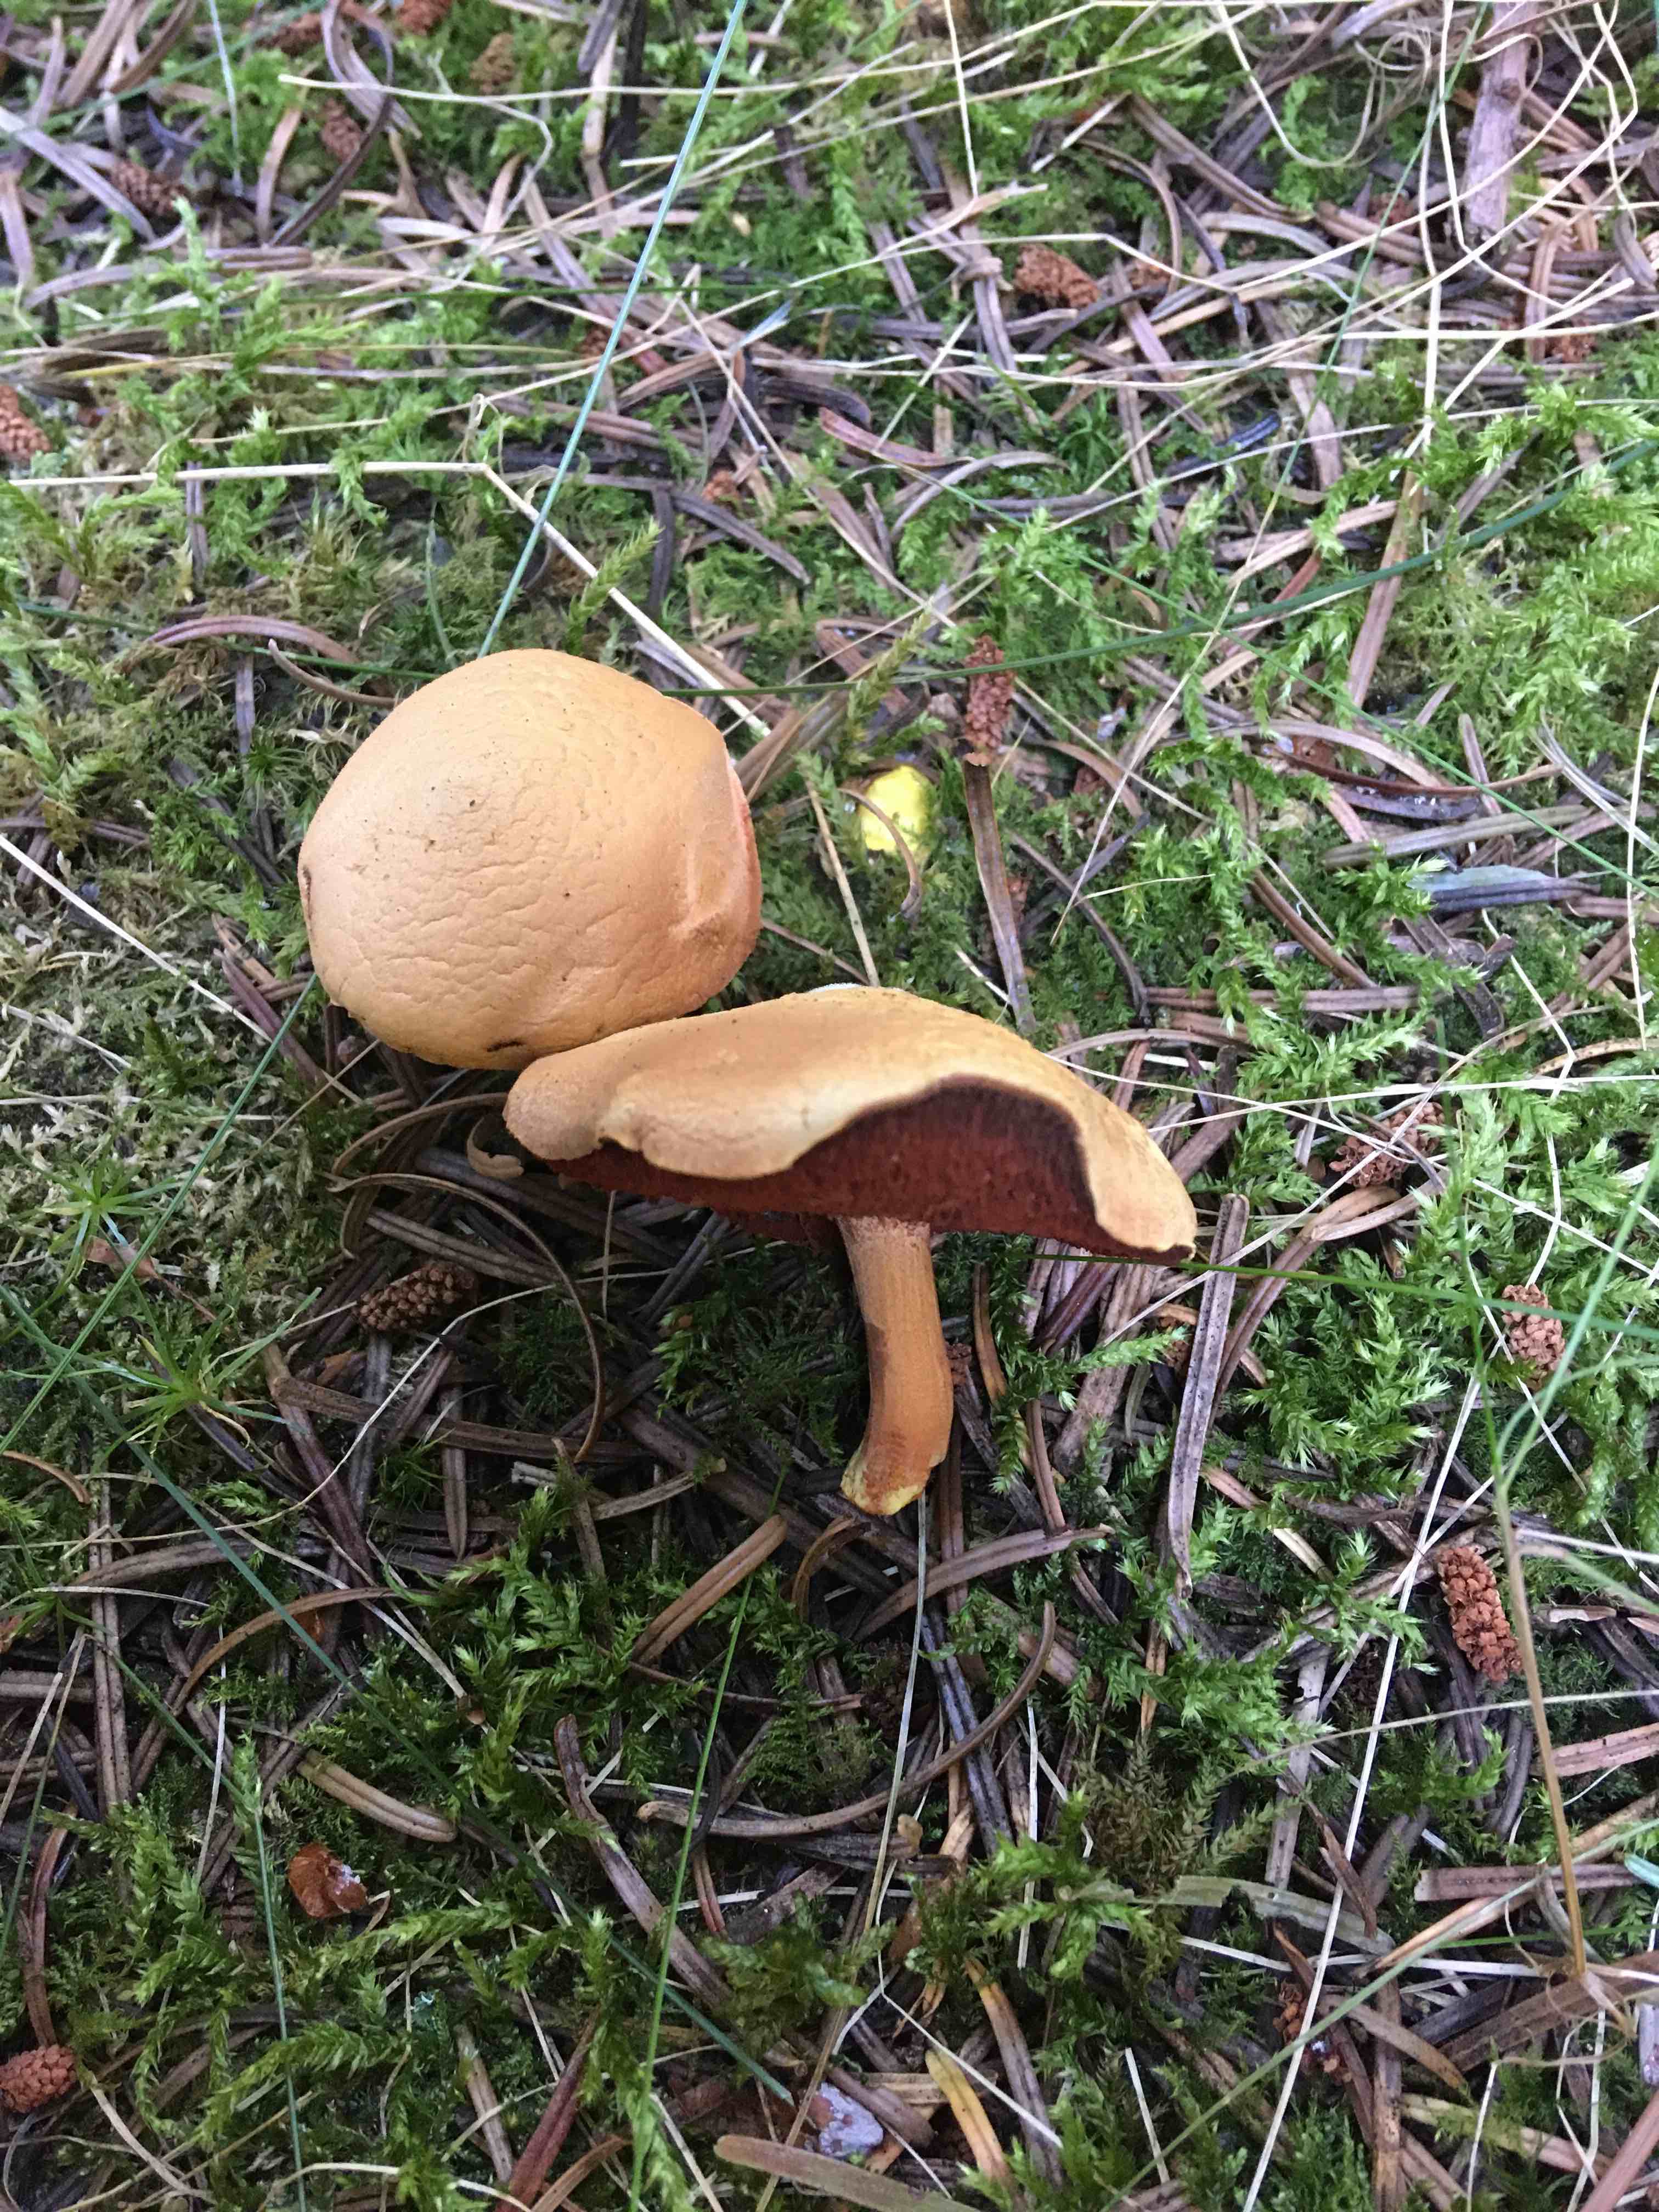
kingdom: Fungi
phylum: Basidiomycota
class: Agaricomycetes
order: Boletales
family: Boletaceae
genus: Chalciporus
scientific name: Chalciporus piperatus
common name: peberrørhat
